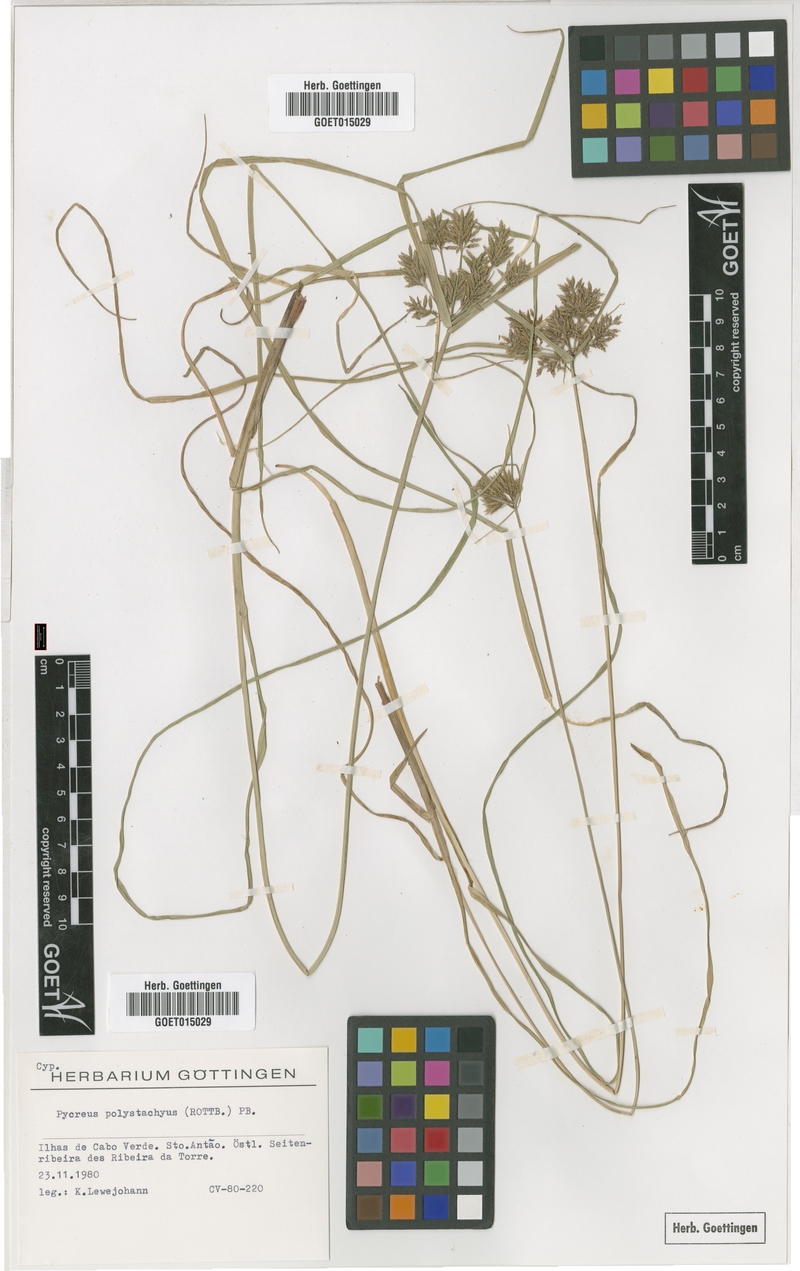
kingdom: Plantae
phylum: Tracheophyta
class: Liliopsida
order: Poales
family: Cyperaceae
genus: Cyperus
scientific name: Cyperus polystachyos
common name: Bunchy flat sedge
